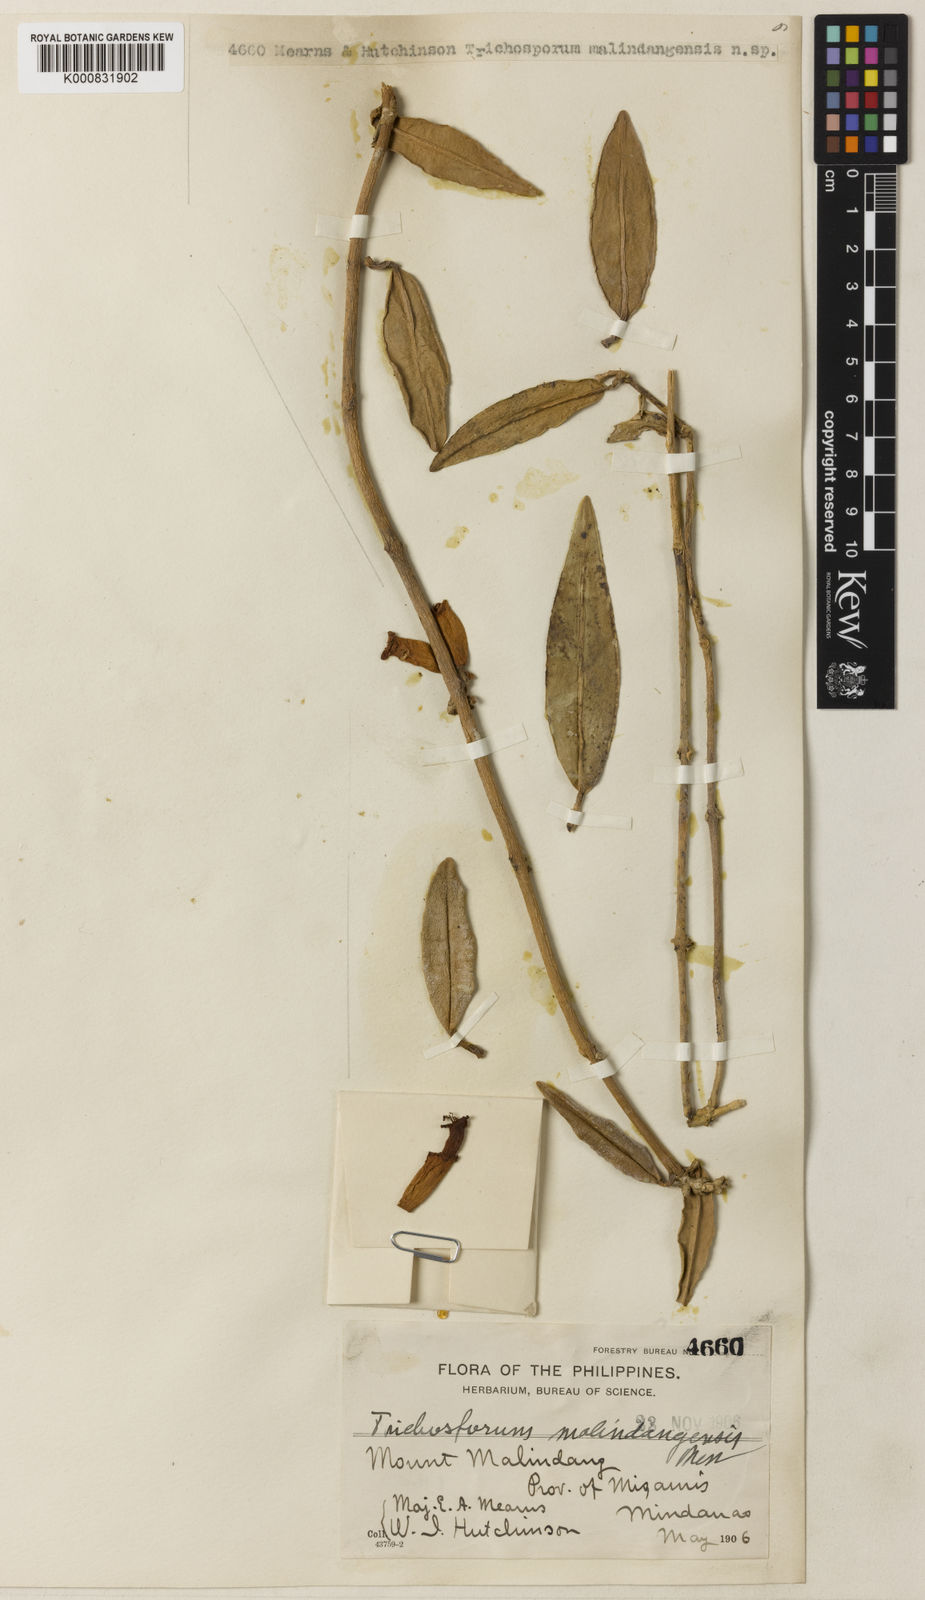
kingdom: Plantae
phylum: Tracheophyta
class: Magnoliopsida
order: Lamiales
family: Gesneriaceae
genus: Aeschynanthus
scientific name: Aeschynanthus
